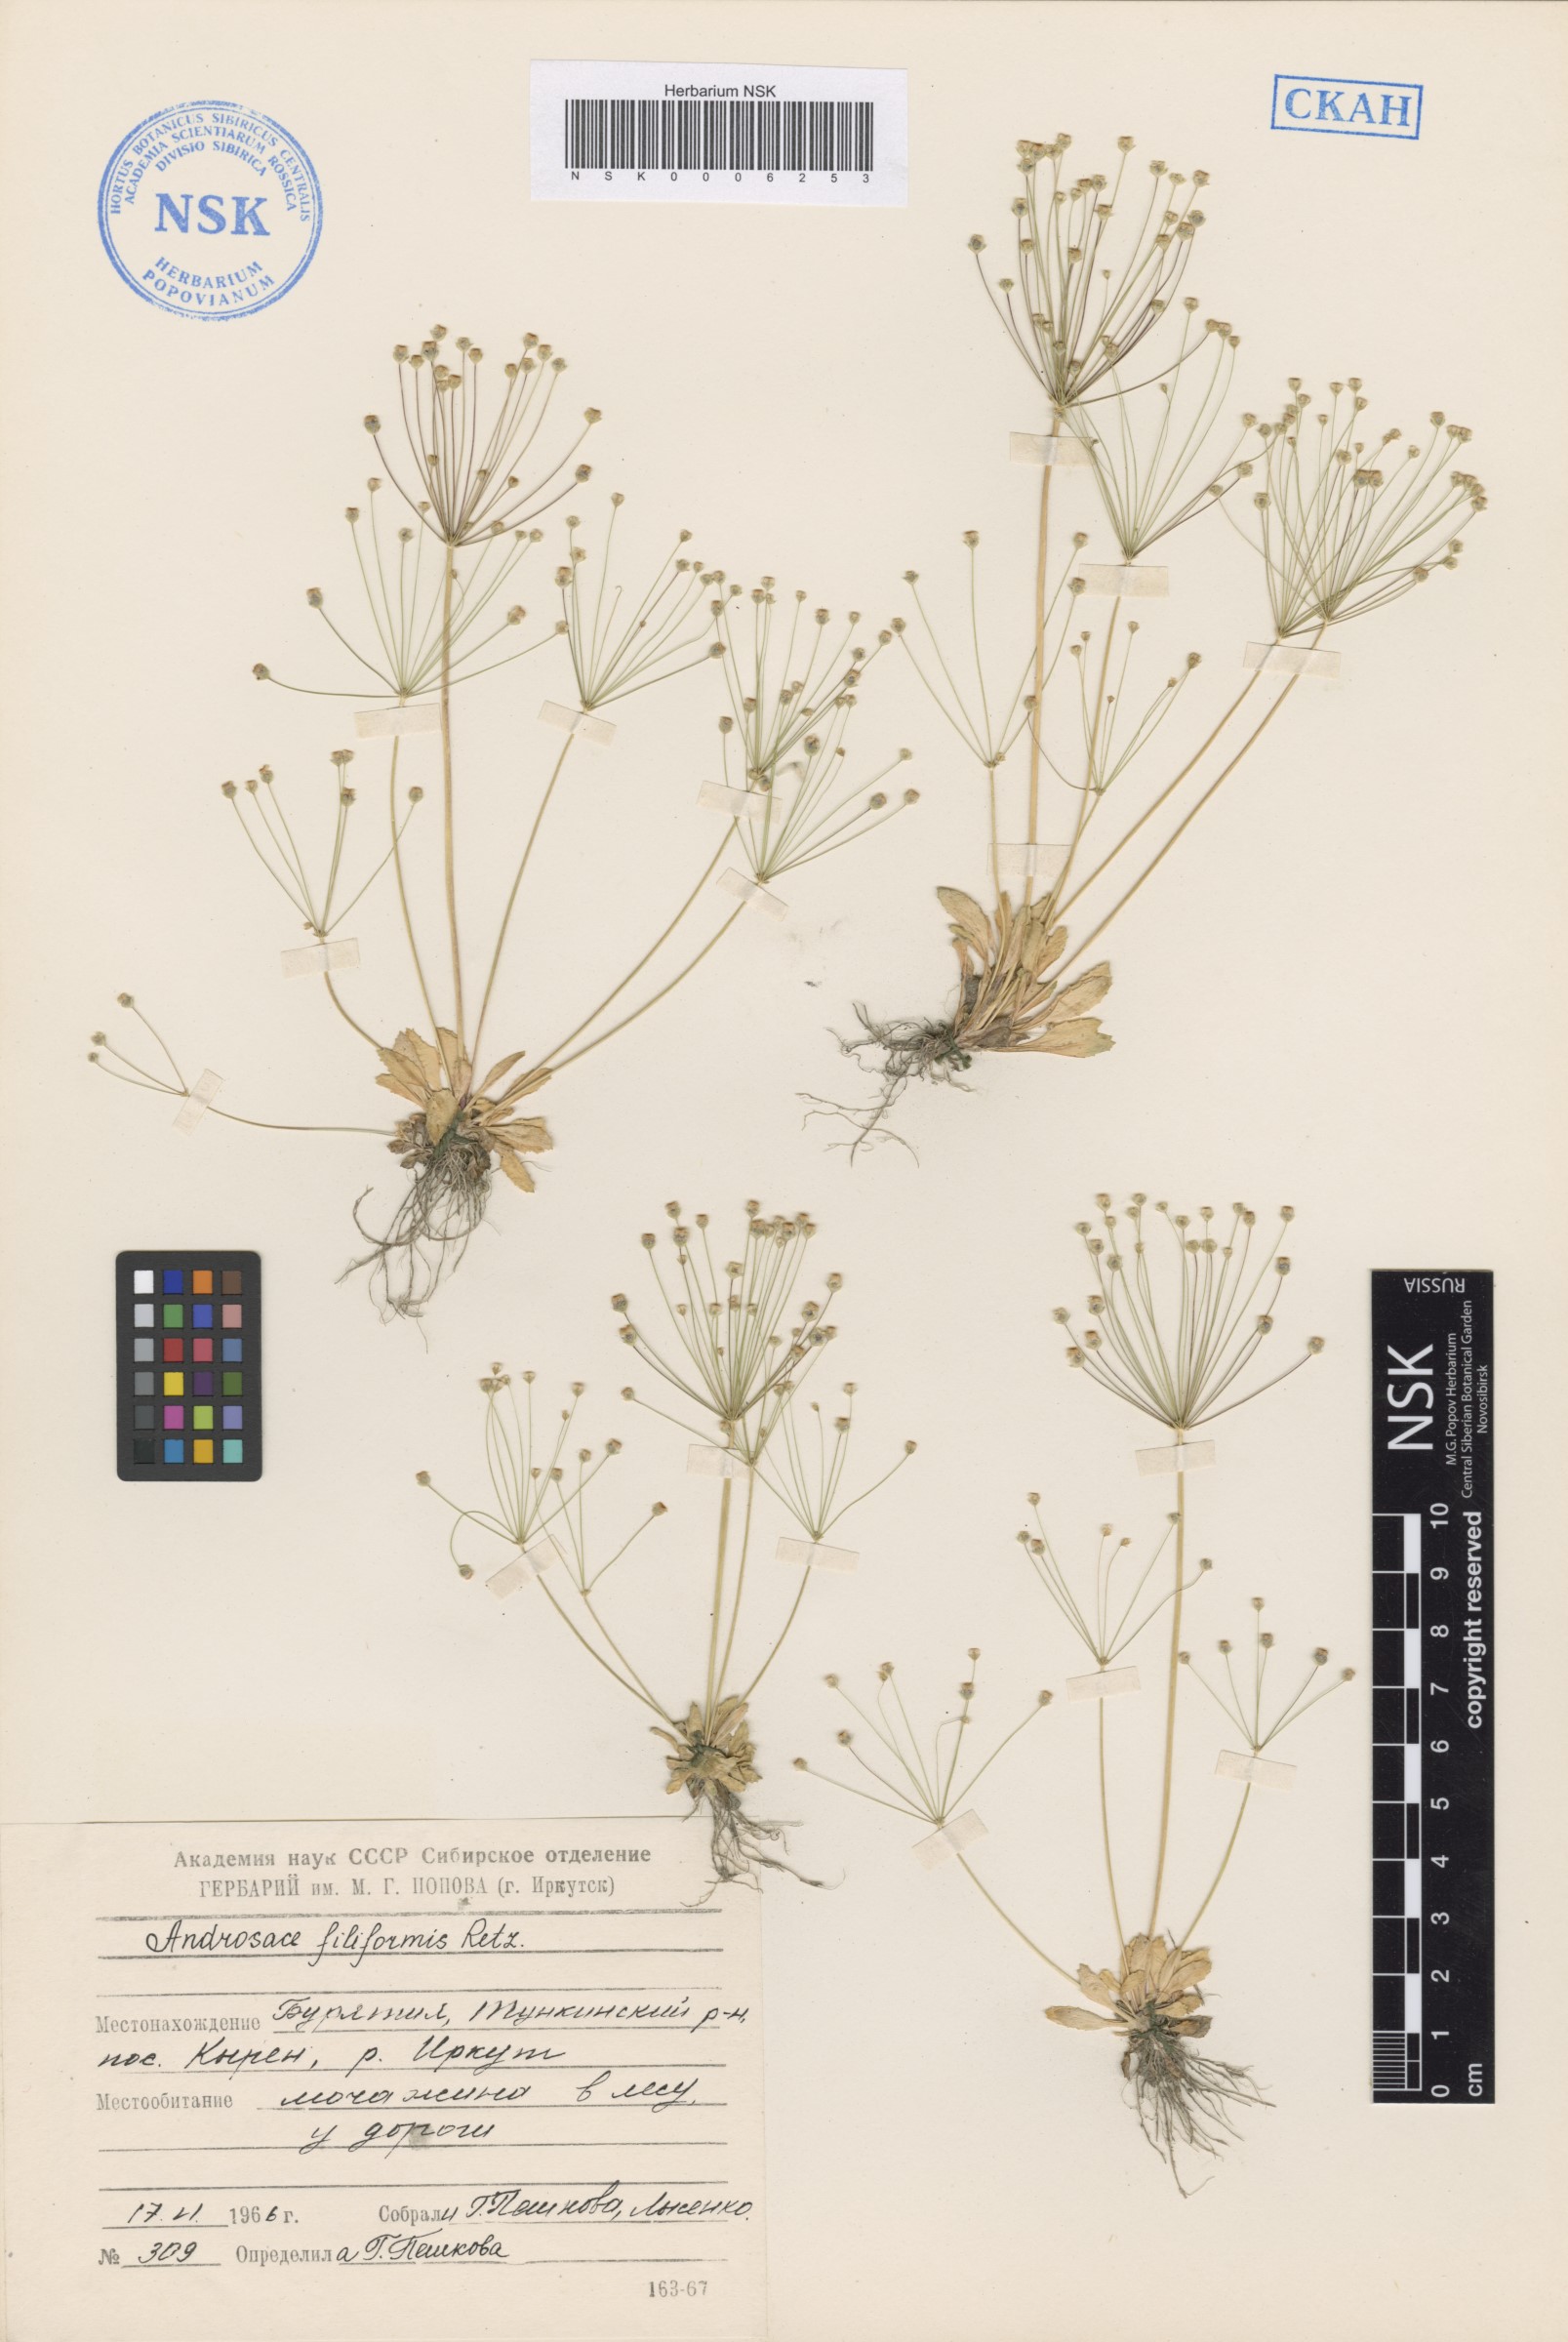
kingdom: Plantae
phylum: Tracheophyta
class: Magnoliopsida
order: Ericales
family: Primulaceae
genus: Androsace
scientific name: Androsace filiformis
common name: Filiform rock jasmine
